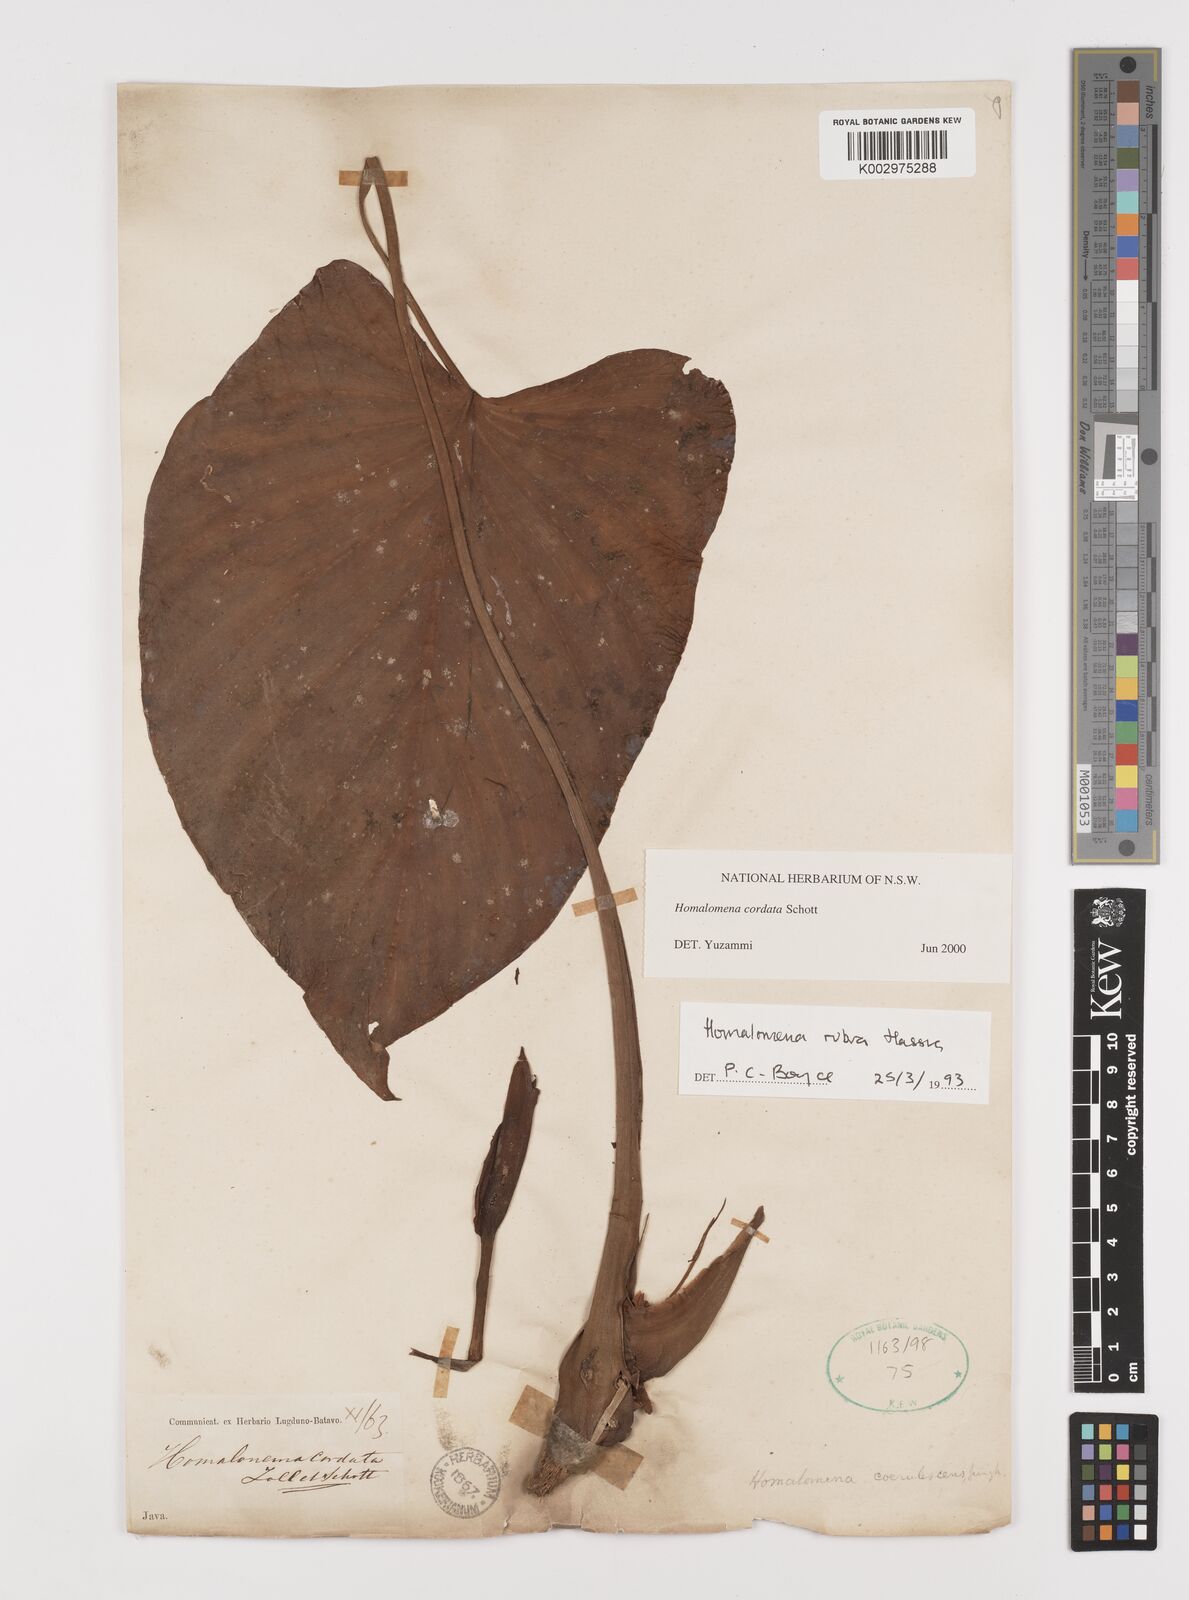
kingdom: Plantae
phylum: Tracheophyta
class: Liliopsida
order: Alismatales
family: Araceae
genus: Homalomena
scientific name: Homalomena cordata
